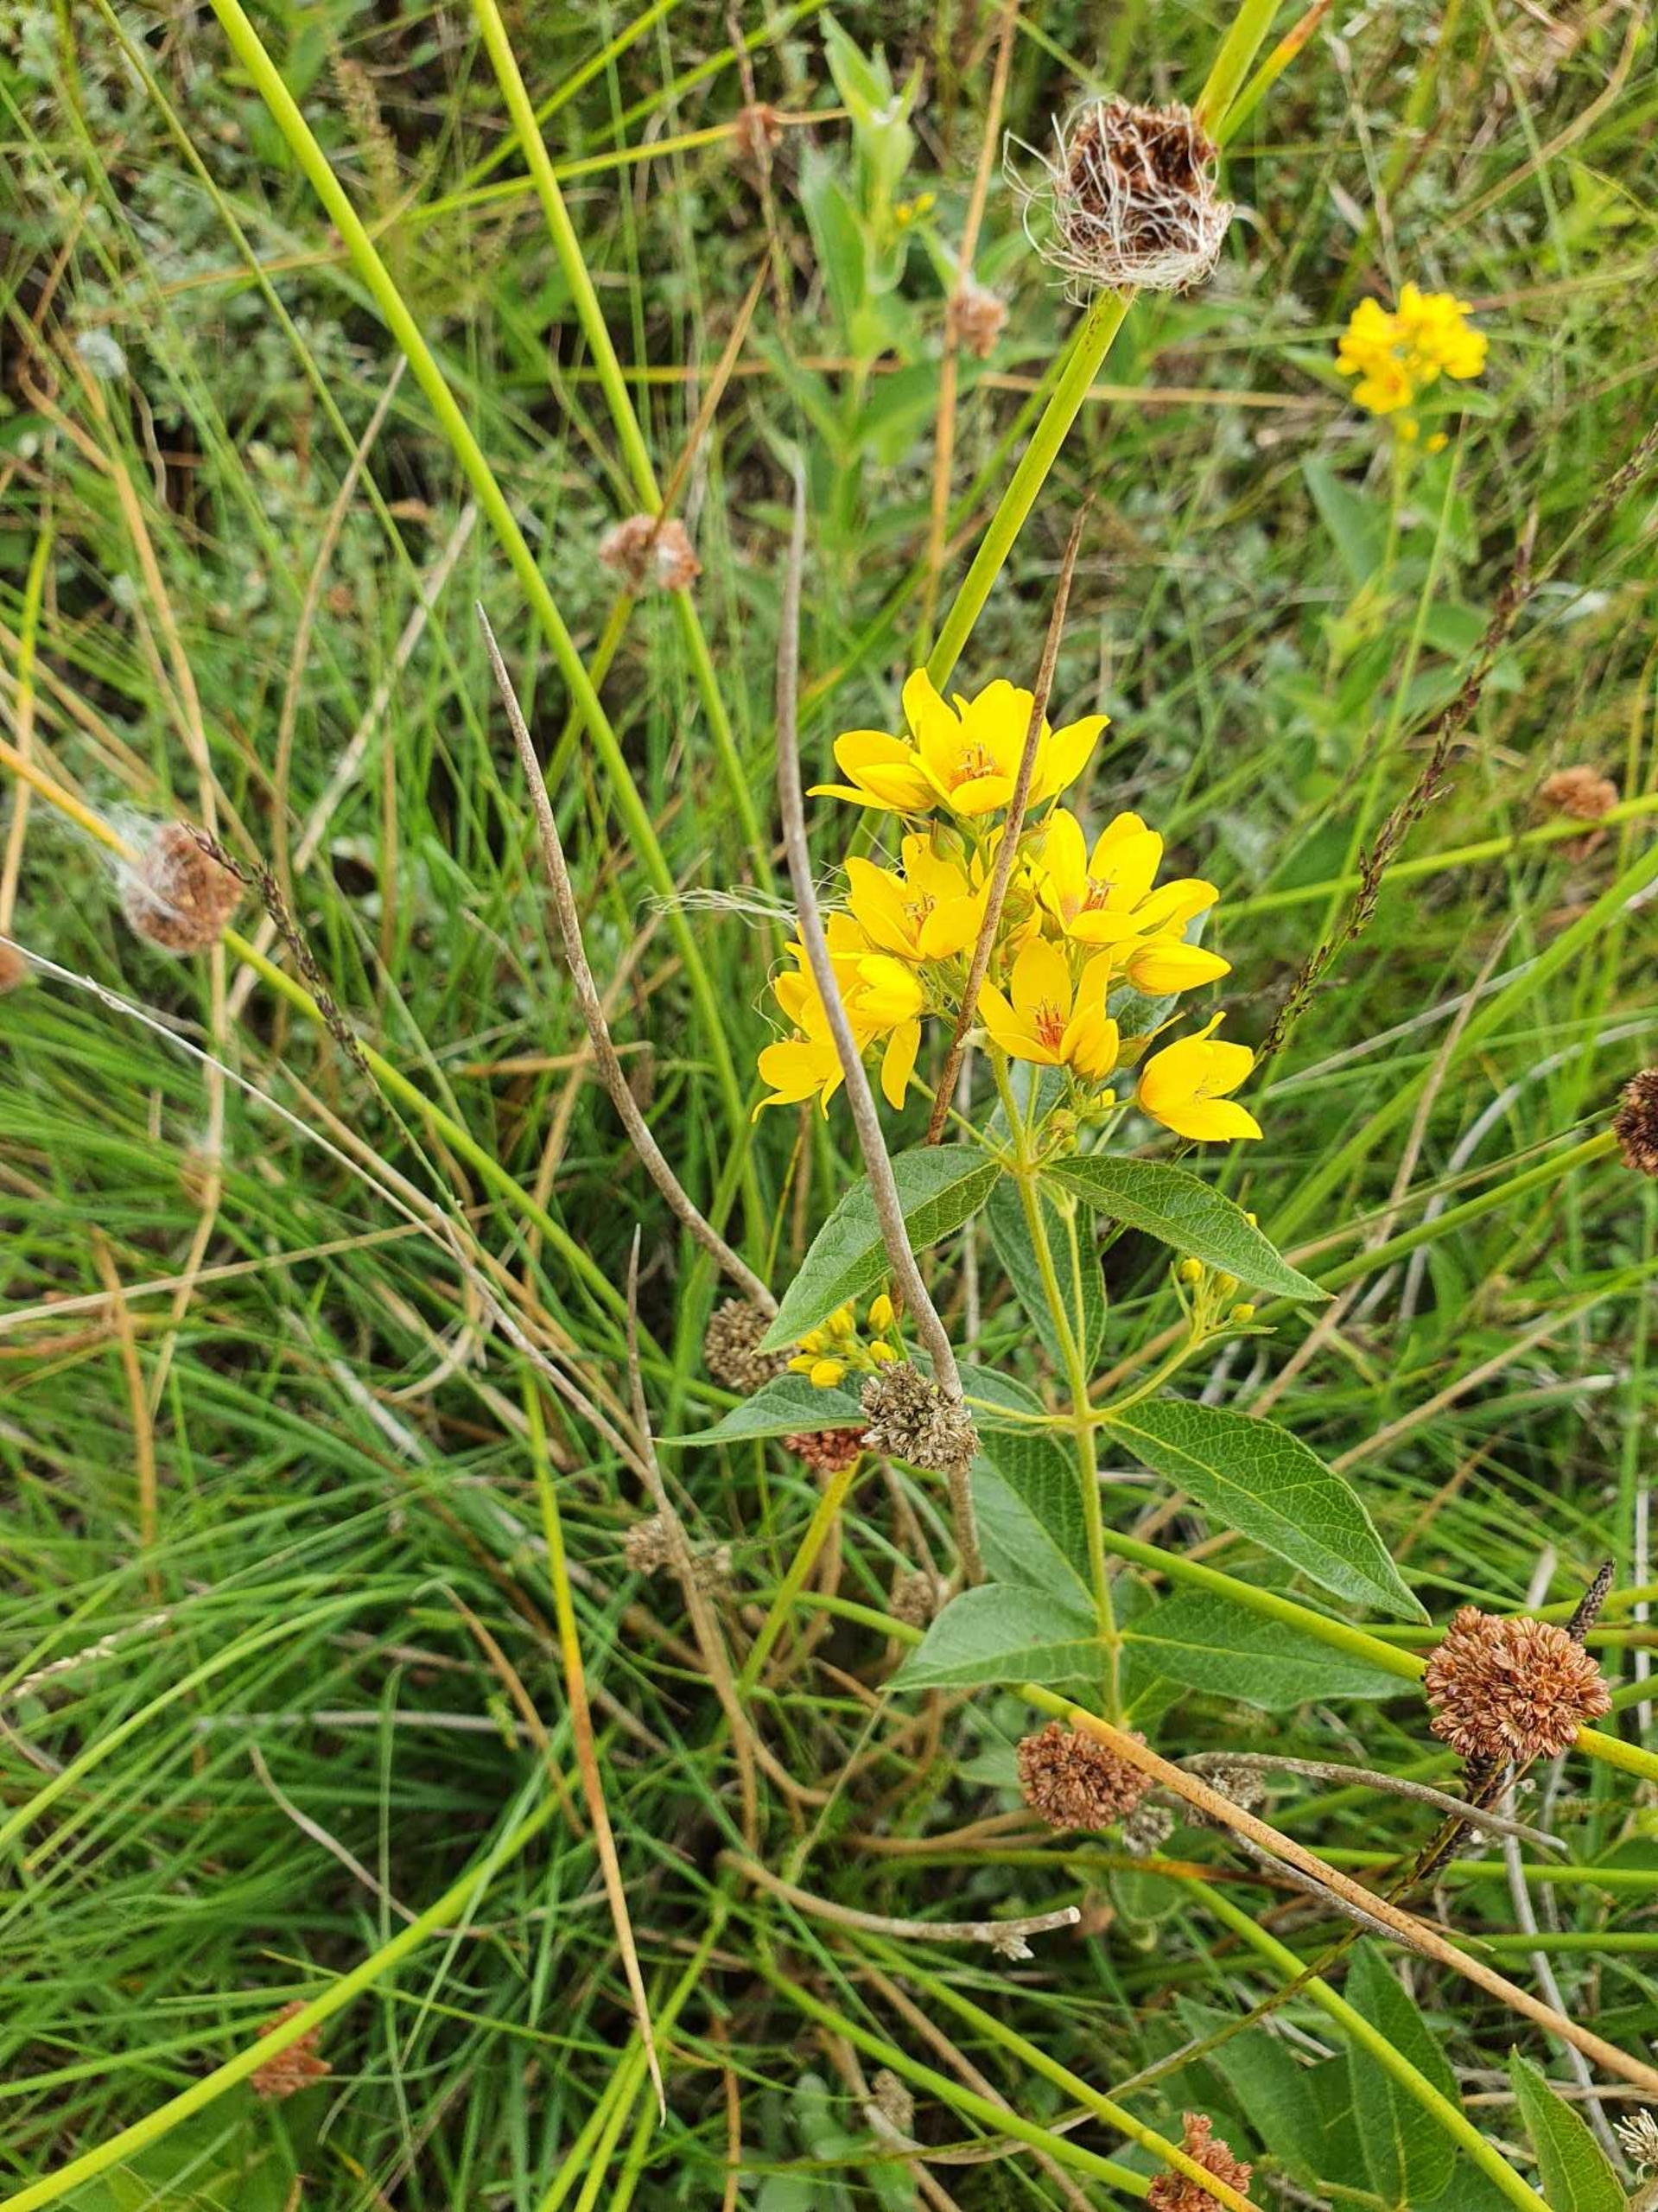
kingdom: Plantae
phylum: Tracheophyta
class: Magnoliopsida
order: Ericales
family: Primulaceae
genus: Lysimachia
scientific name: Lysimachia vulgaris
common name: Almindelig fredløs
